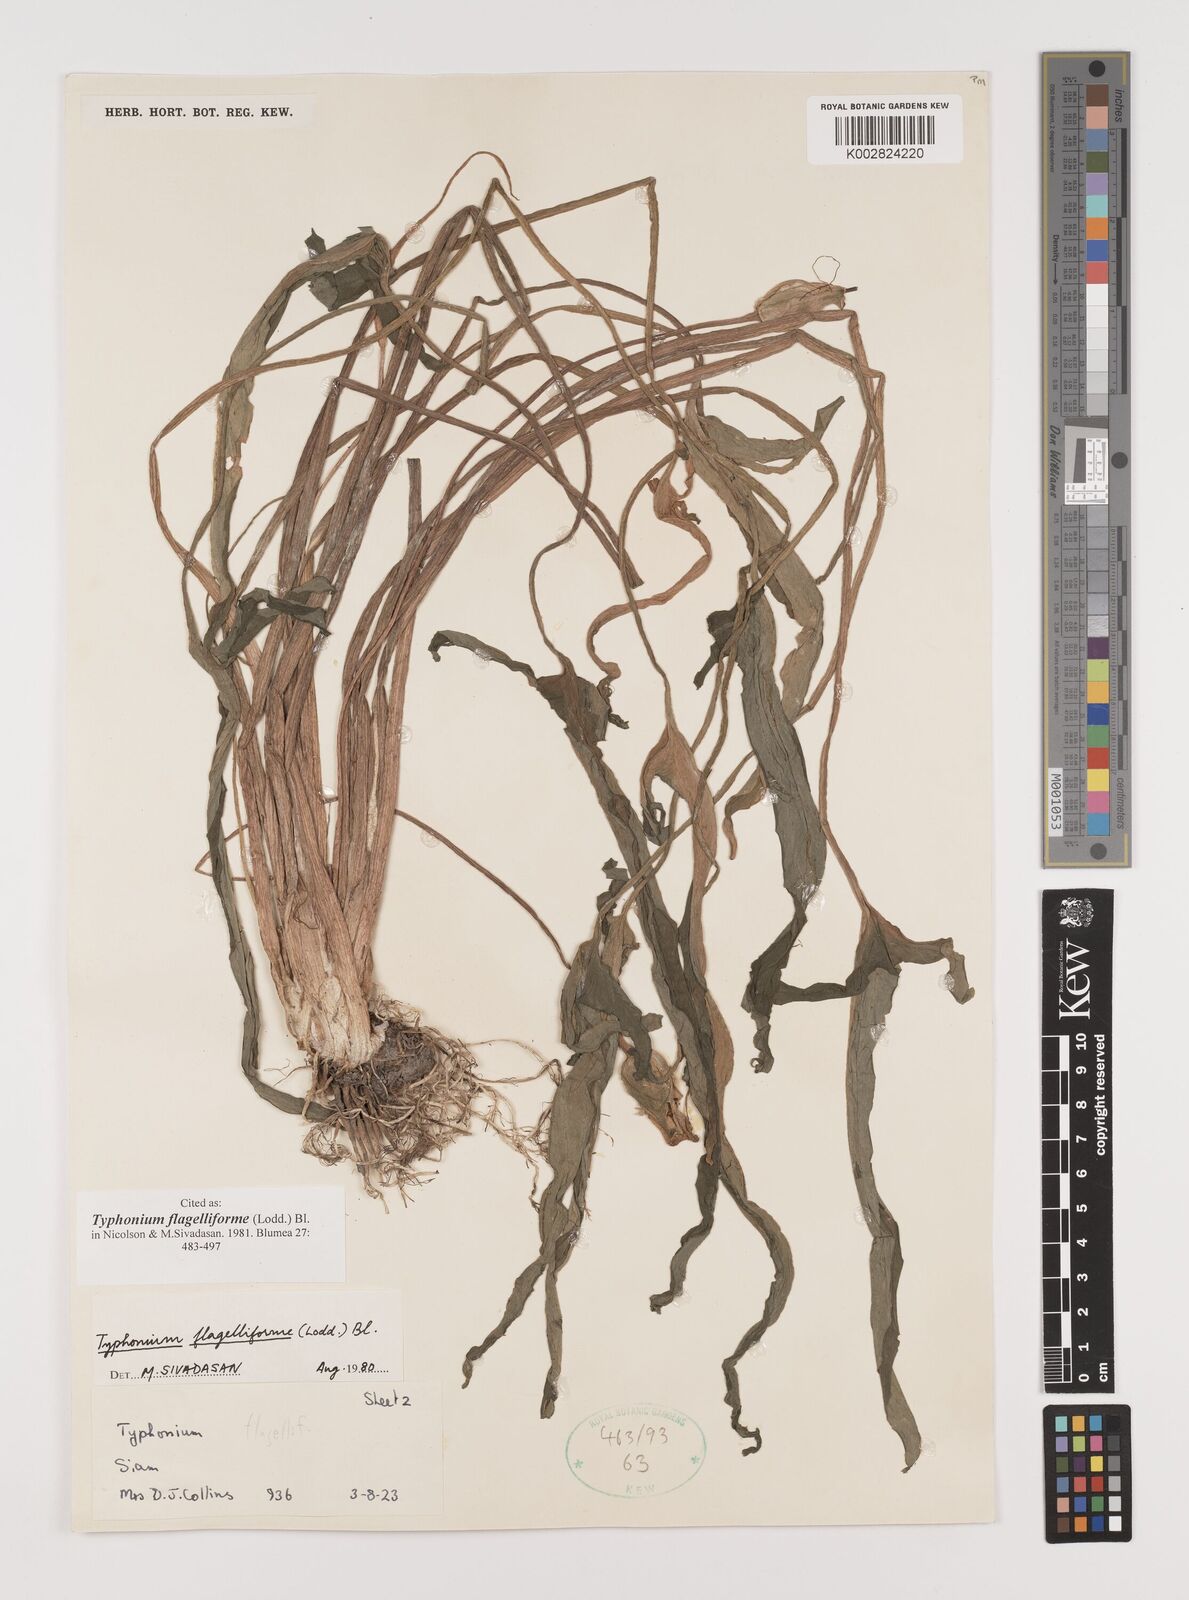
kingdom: Plantae
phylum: Tracheophyta
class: Liliopsida
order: Alismatales
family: Araceae
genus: Typhonium
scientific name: Typhonium flagelliforme
